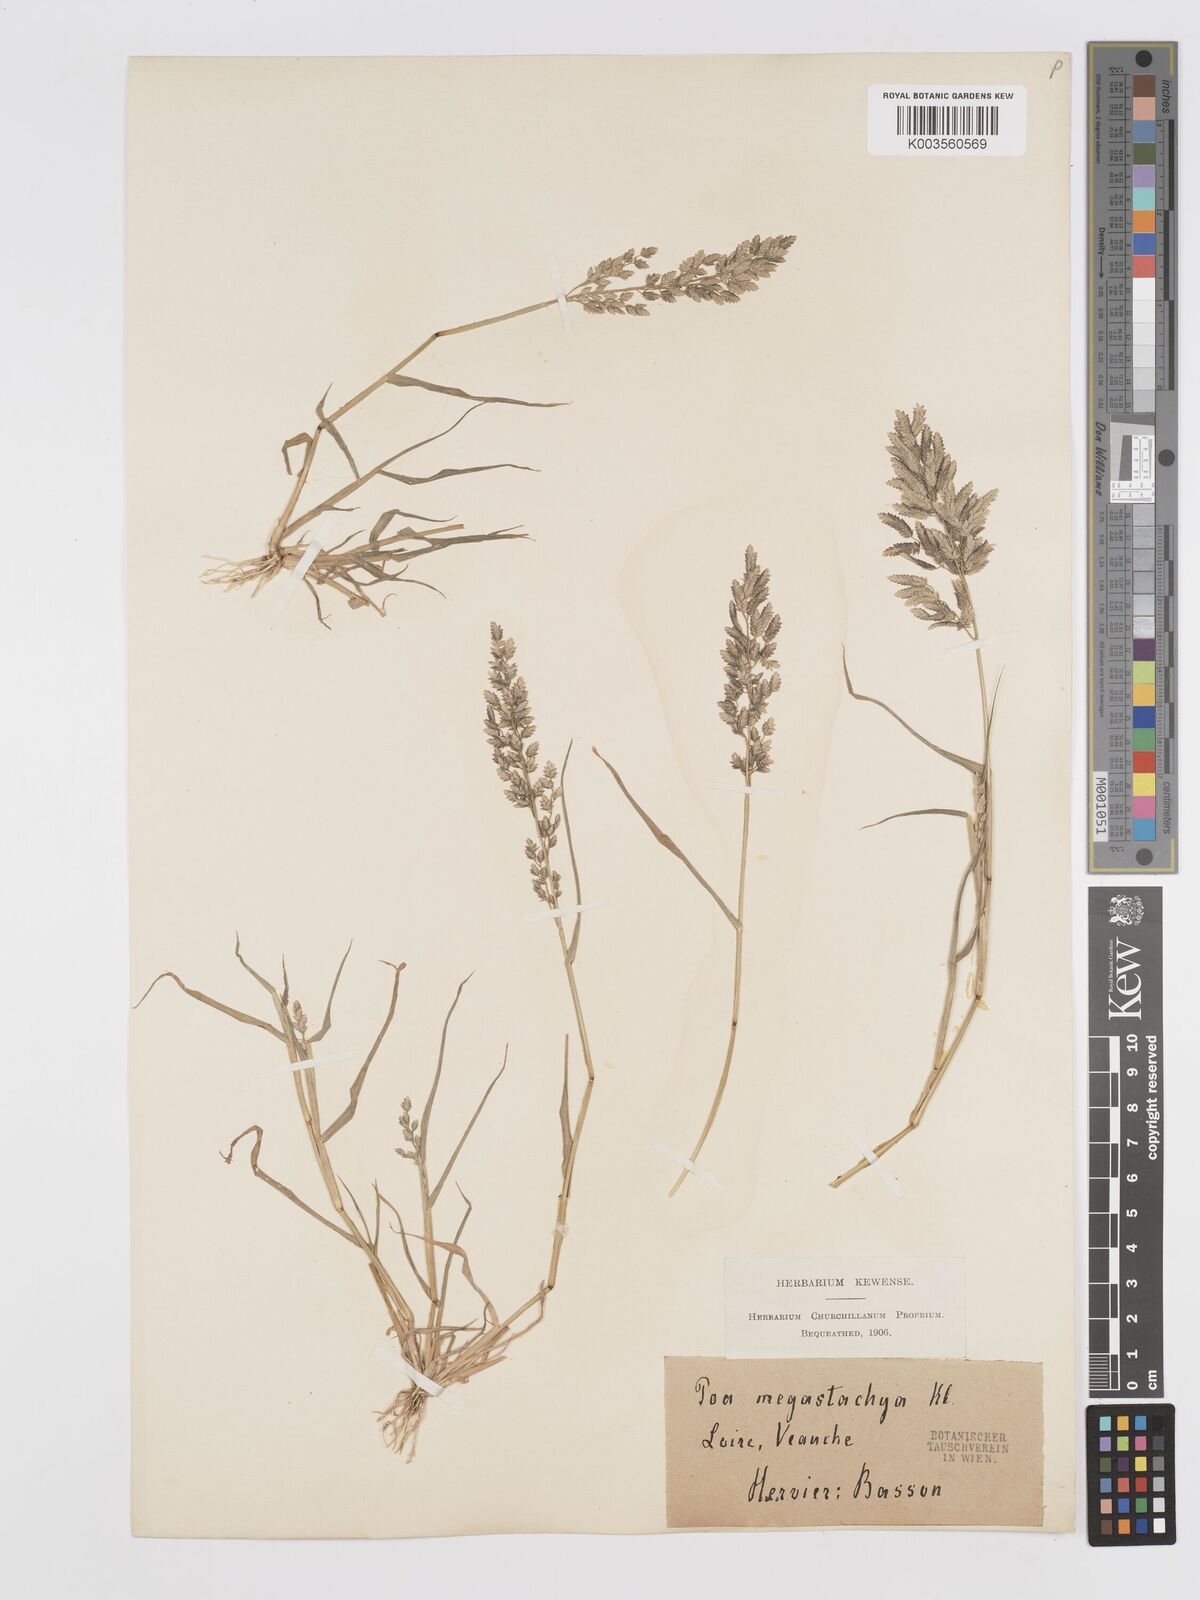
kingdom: Plantae
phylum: Tracheophyta
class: Liliopsida
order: Poales
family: Poaceae
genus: Eragrostis
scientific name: Eragrostis cilianensis
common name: Stinkgrass
